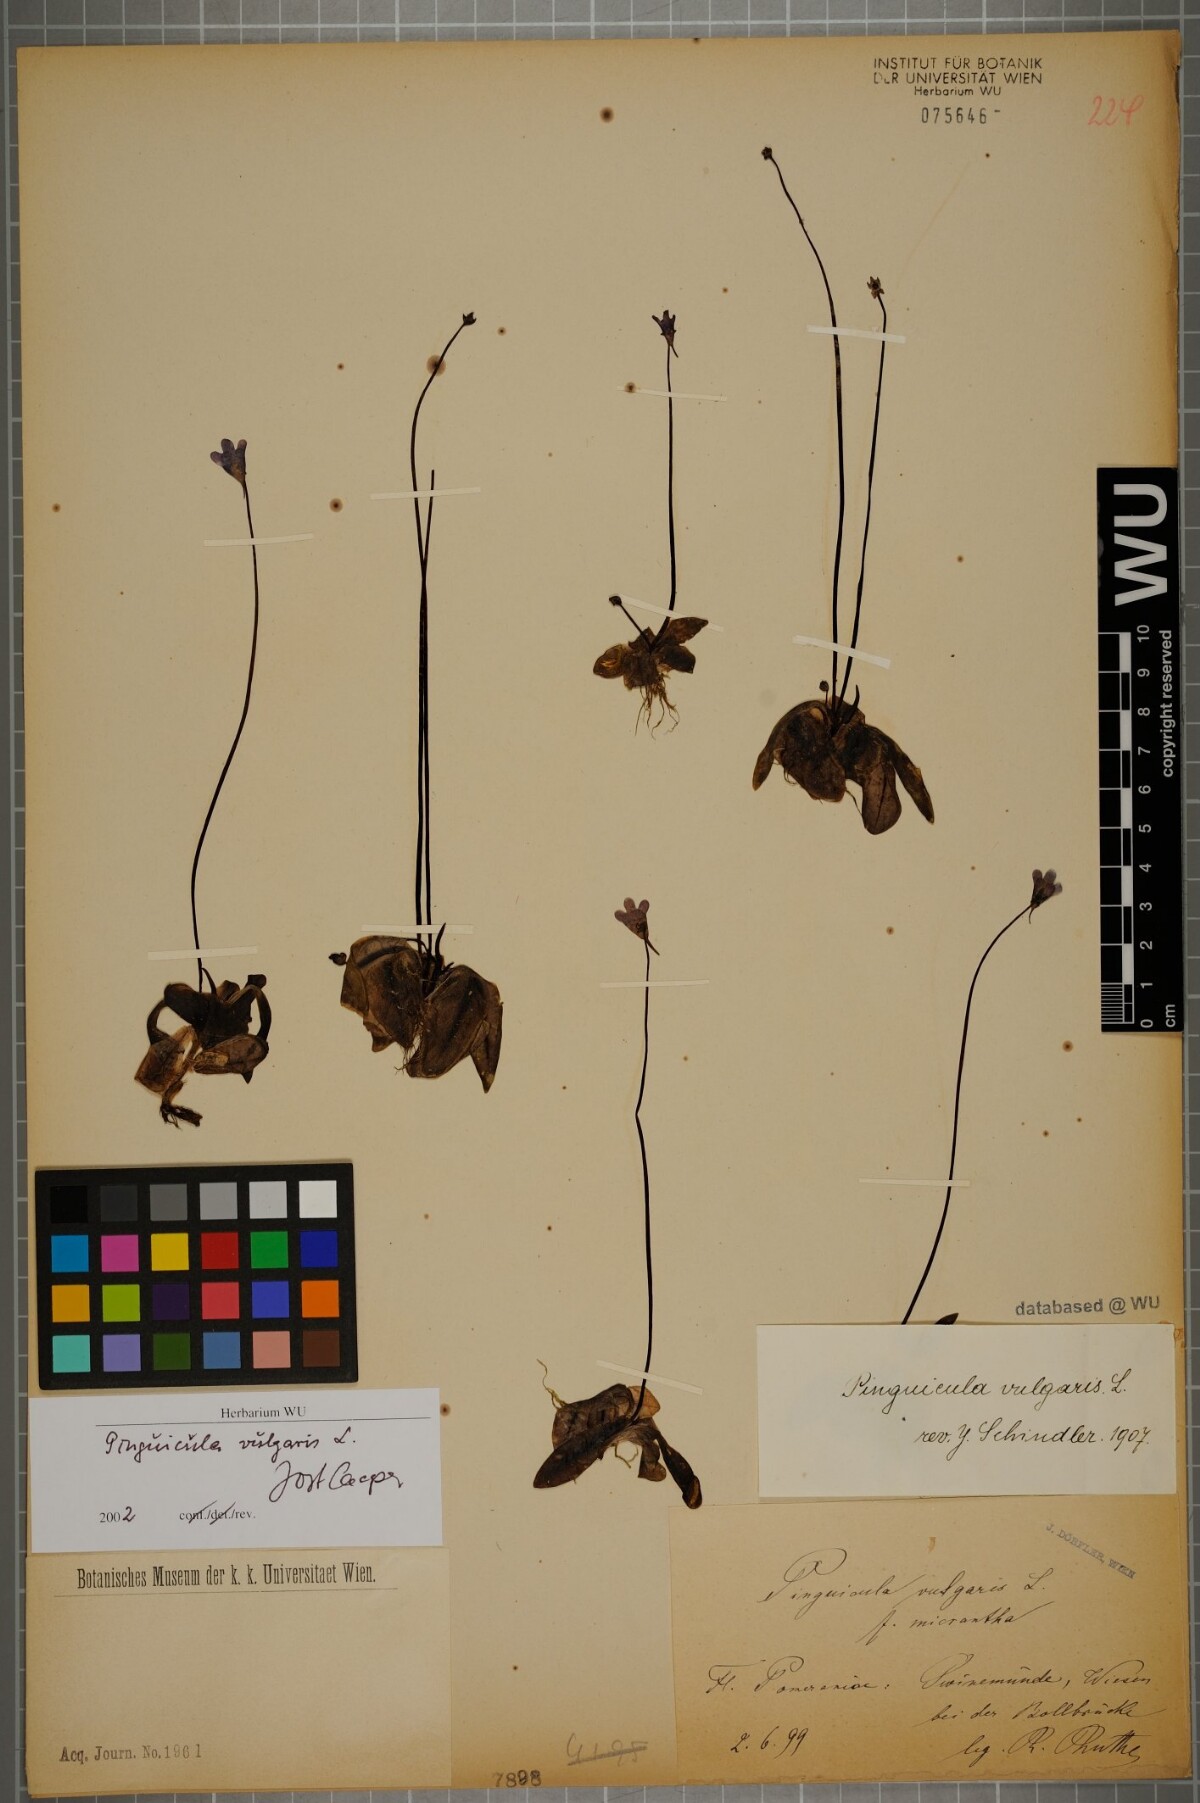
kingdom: Plantae
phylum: Tracheophyta
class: Magnoliopsida
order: Lamiales
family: Lentibulariaceae
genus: Pinguicula
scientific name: Pinguicula vulgaris
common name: Common butterwort
